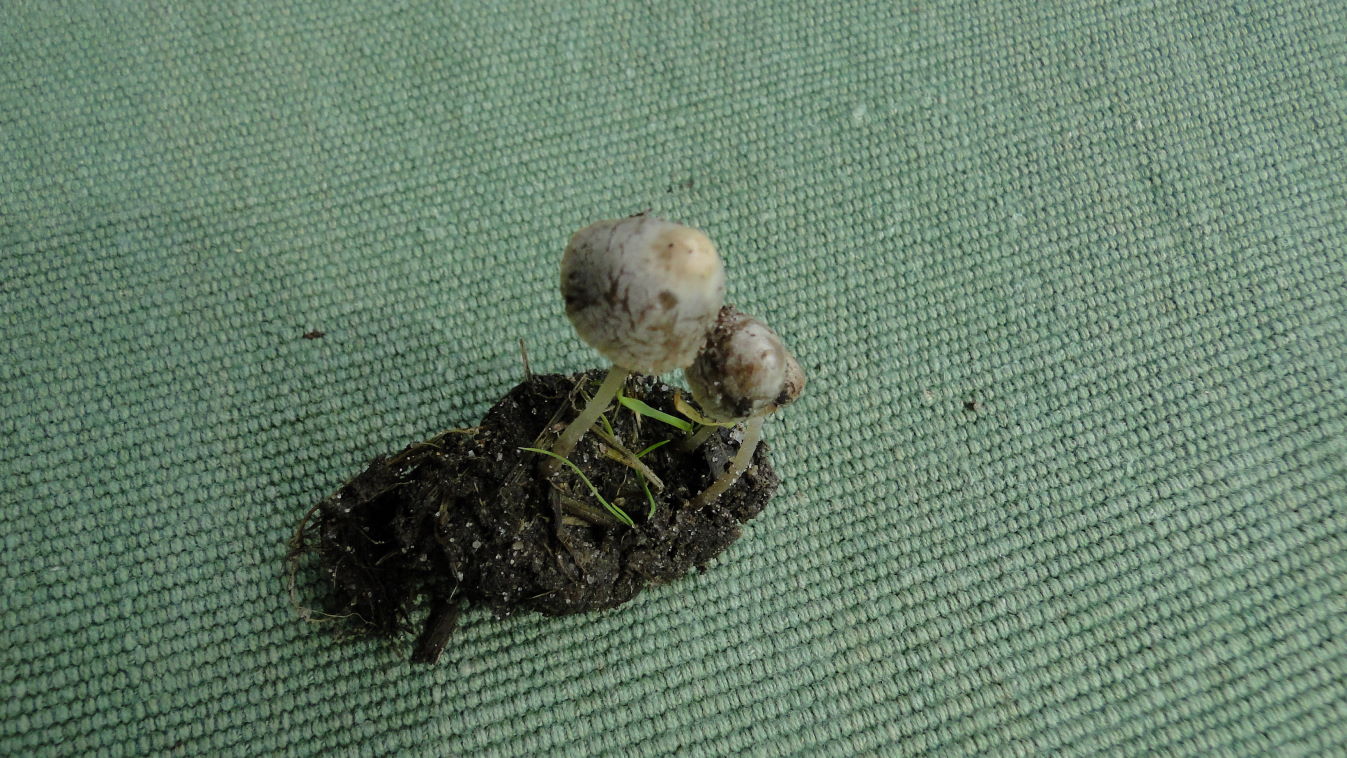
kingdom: Fungi
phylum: Basidiomycota
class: Agaricomycetes
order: Agaricales
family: Psathyrellaceae
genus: Psathyrella
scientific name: Psathyrella potteri
